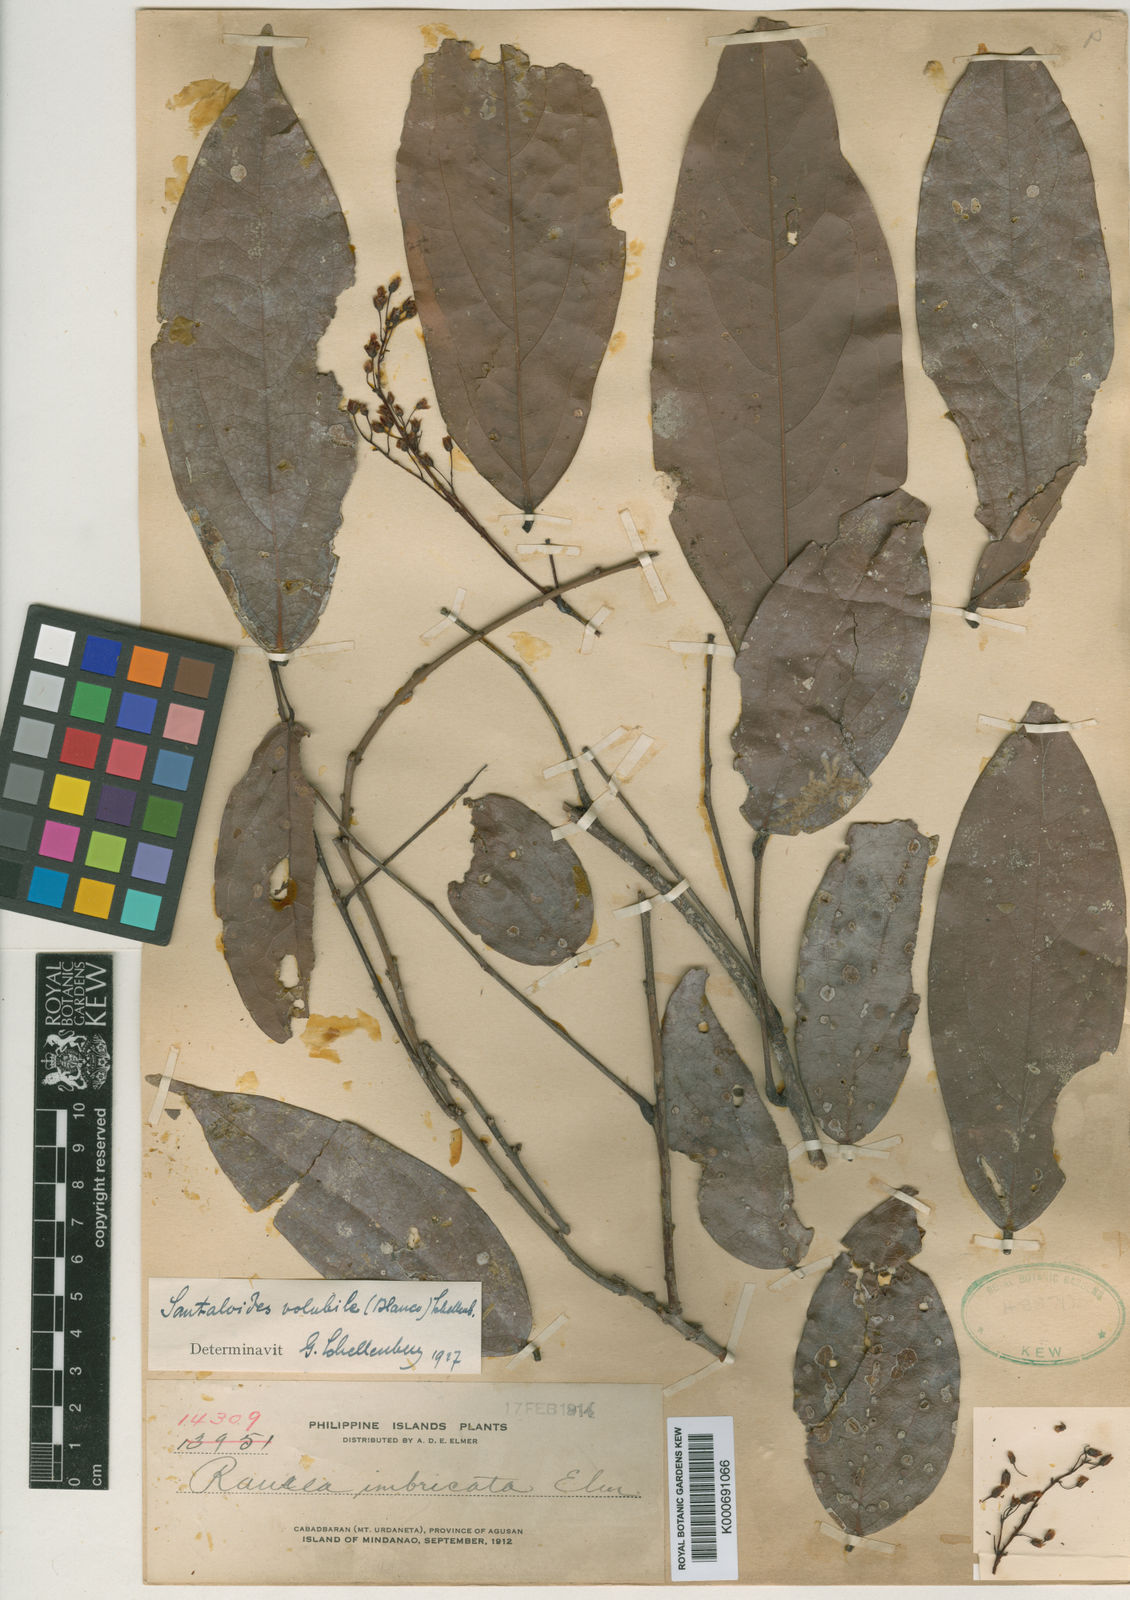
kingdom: Plantae
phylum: Tracheophyta
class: Magnoliopsida
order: Oxalidales
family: Connaraceae
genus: Rourea
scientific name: Rourea
